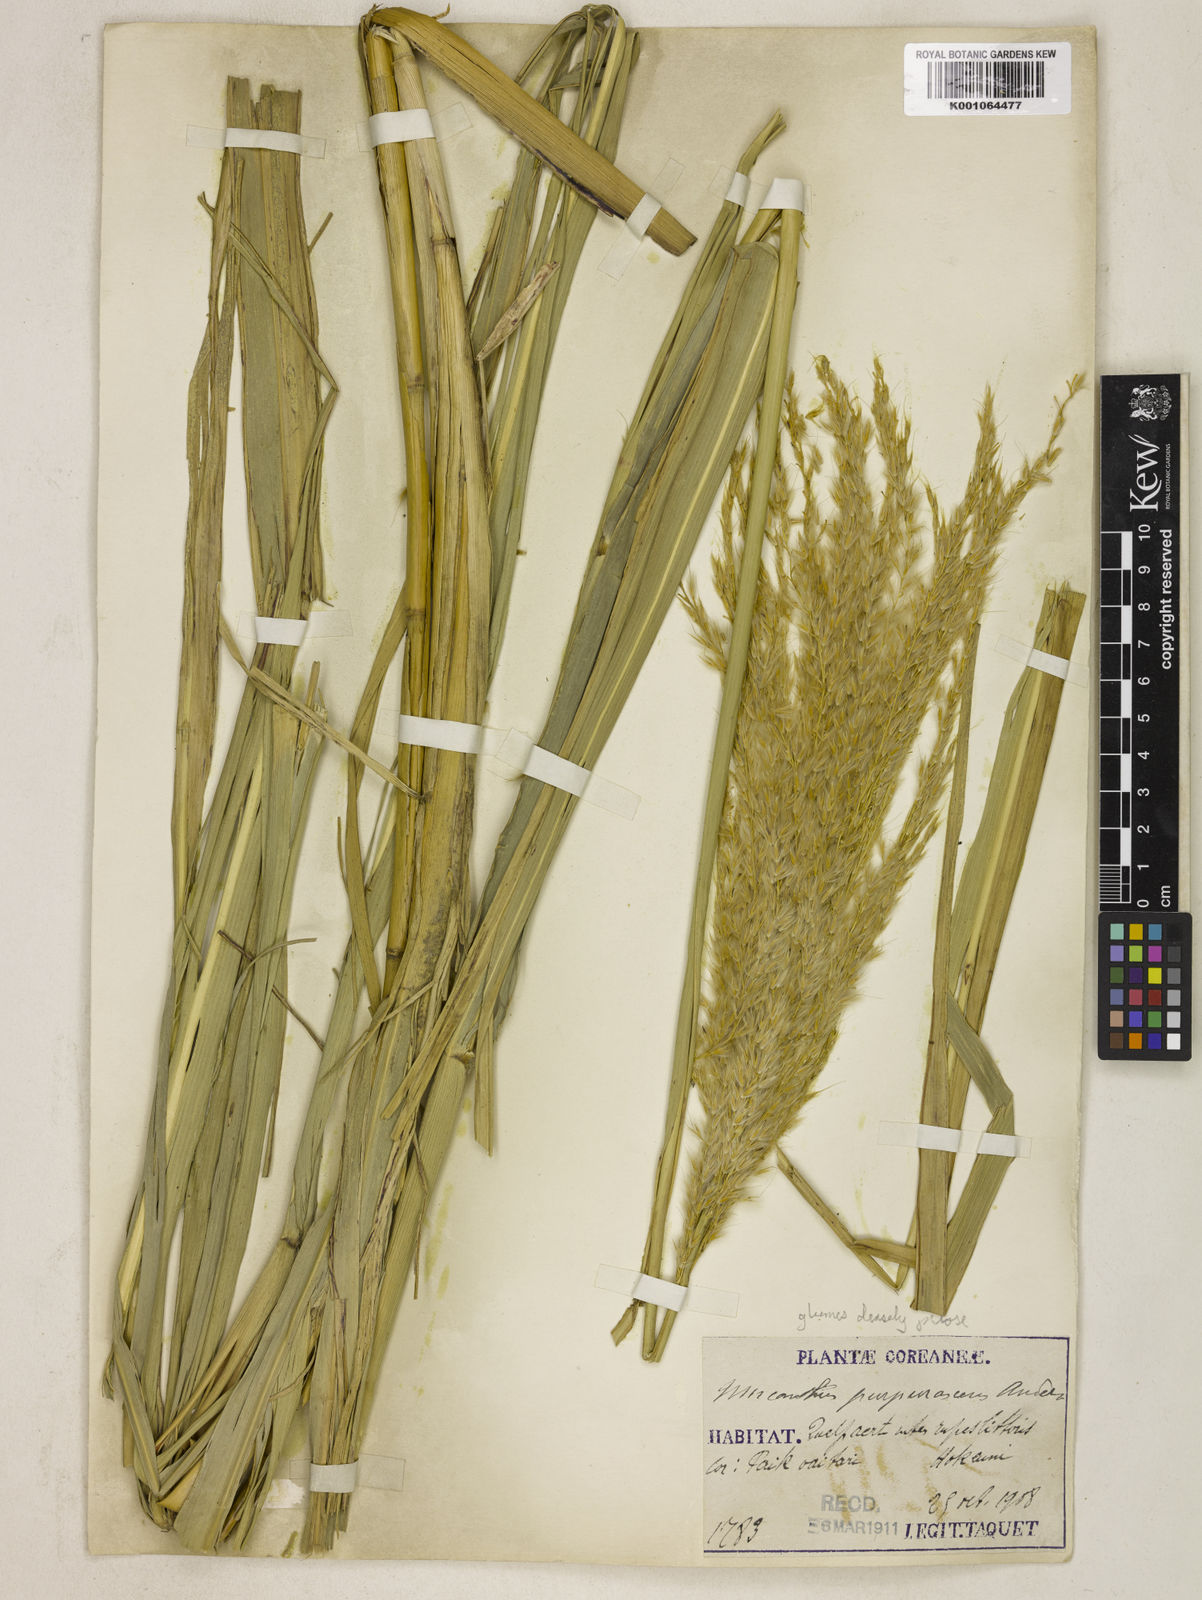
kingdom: Plantae
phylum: Tracheophyta
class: Liliopsida
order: Poales
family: Poaceae
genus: Miscanthus
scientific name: Miscanthus sinensis
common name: Chinese silvergrass
